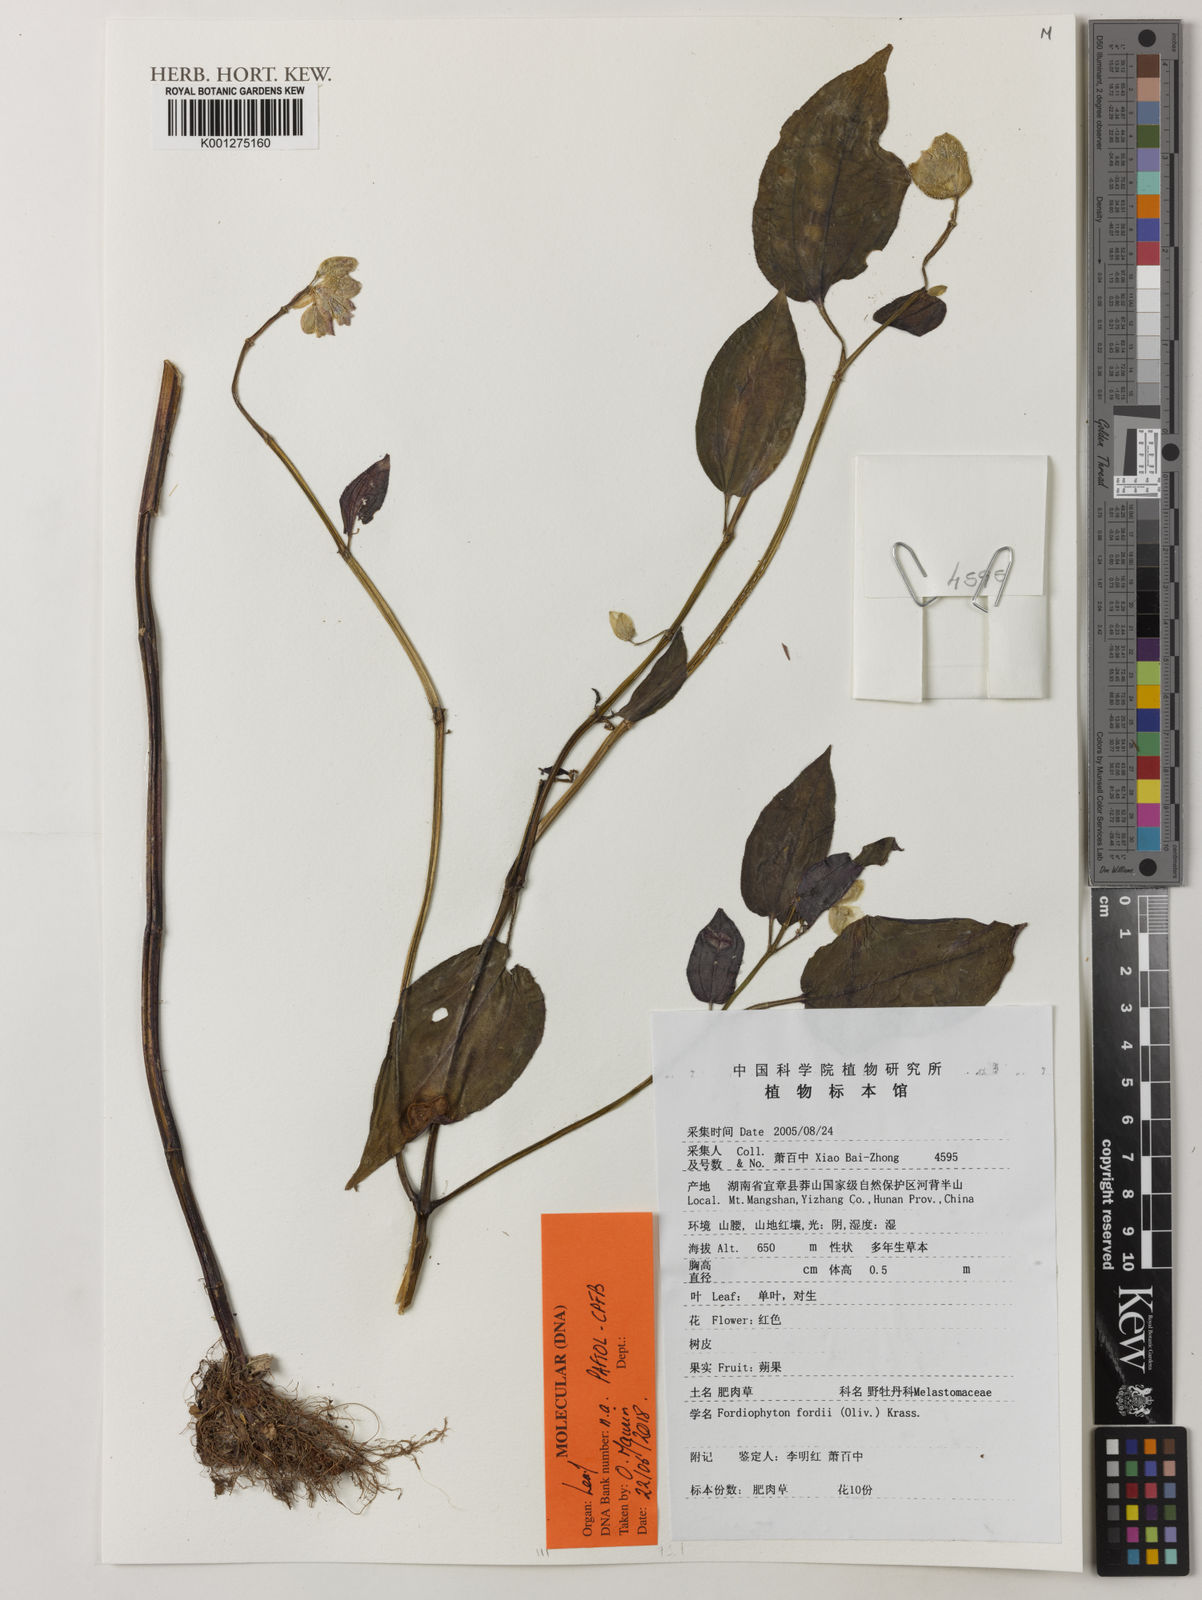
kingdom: Plantae
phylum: Tracheophyta
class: Magnoliopsida
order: Myrtales
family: Melastomataceae
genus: Fordiophyton
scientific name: Fordiophyton faberi
